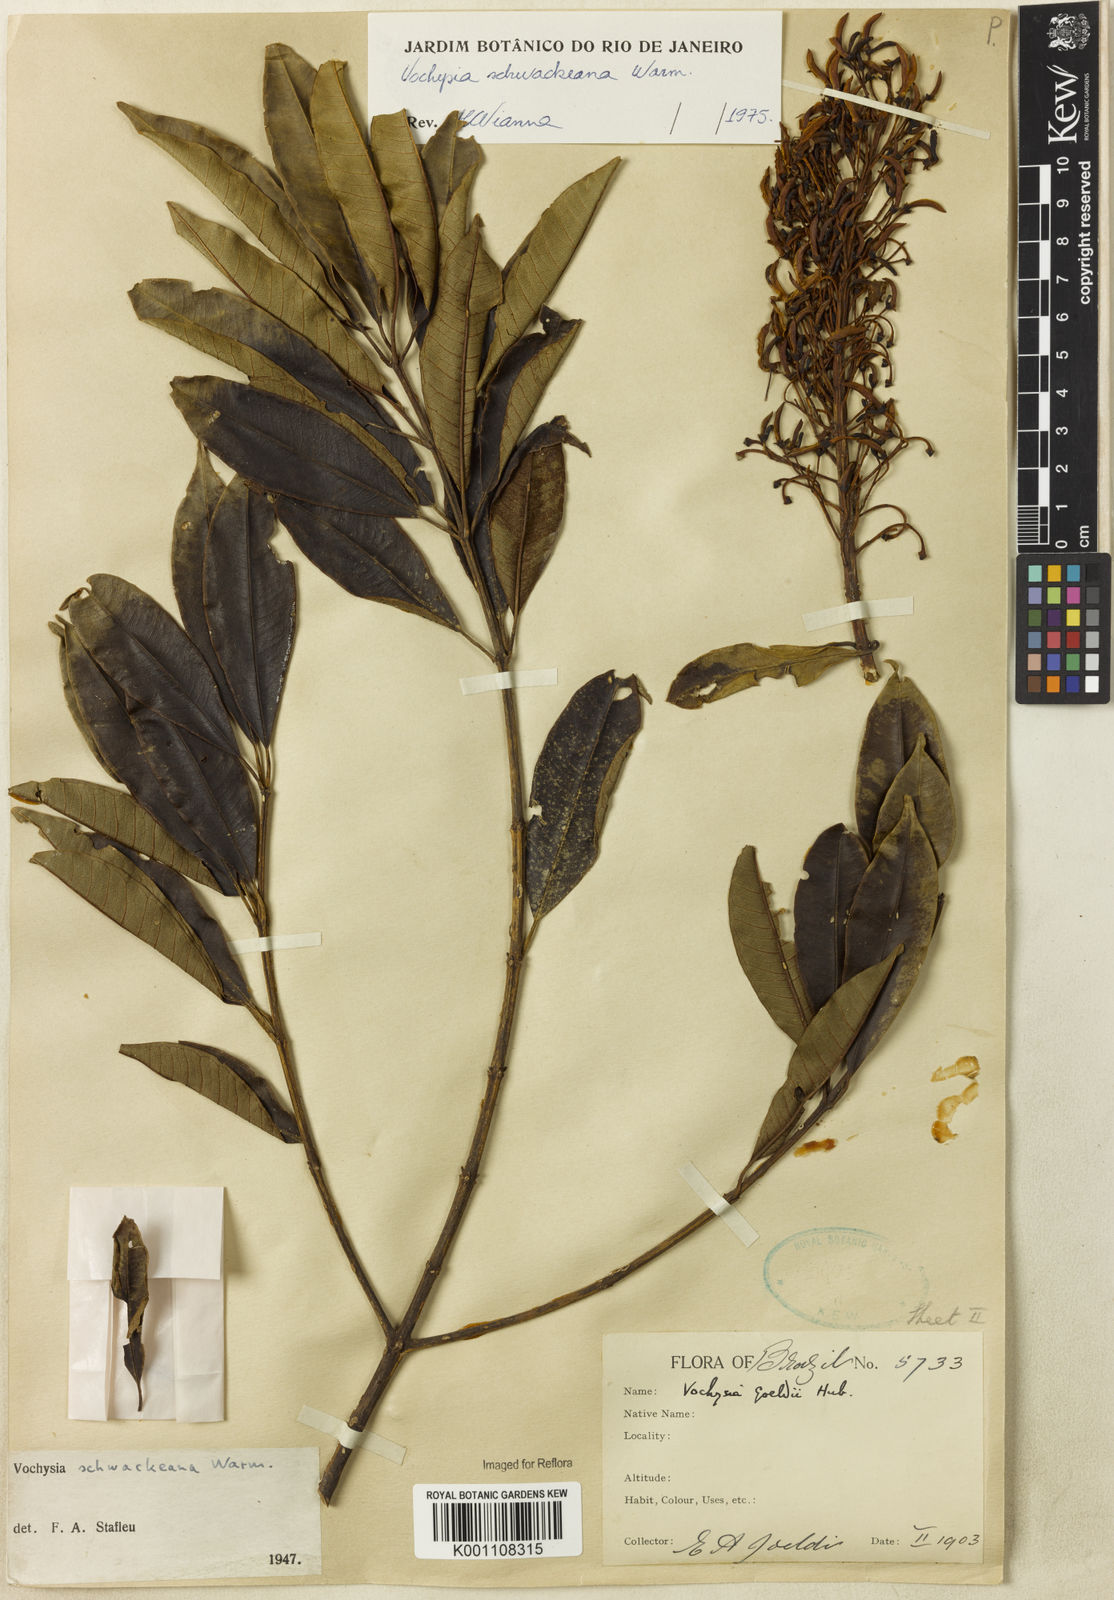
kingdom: Plantae
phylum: Tracheophyta
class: Magnoliopsida
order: Myrtales
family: Vochysiaceae
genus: Vochysia
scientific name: Vochysia saldanhana
